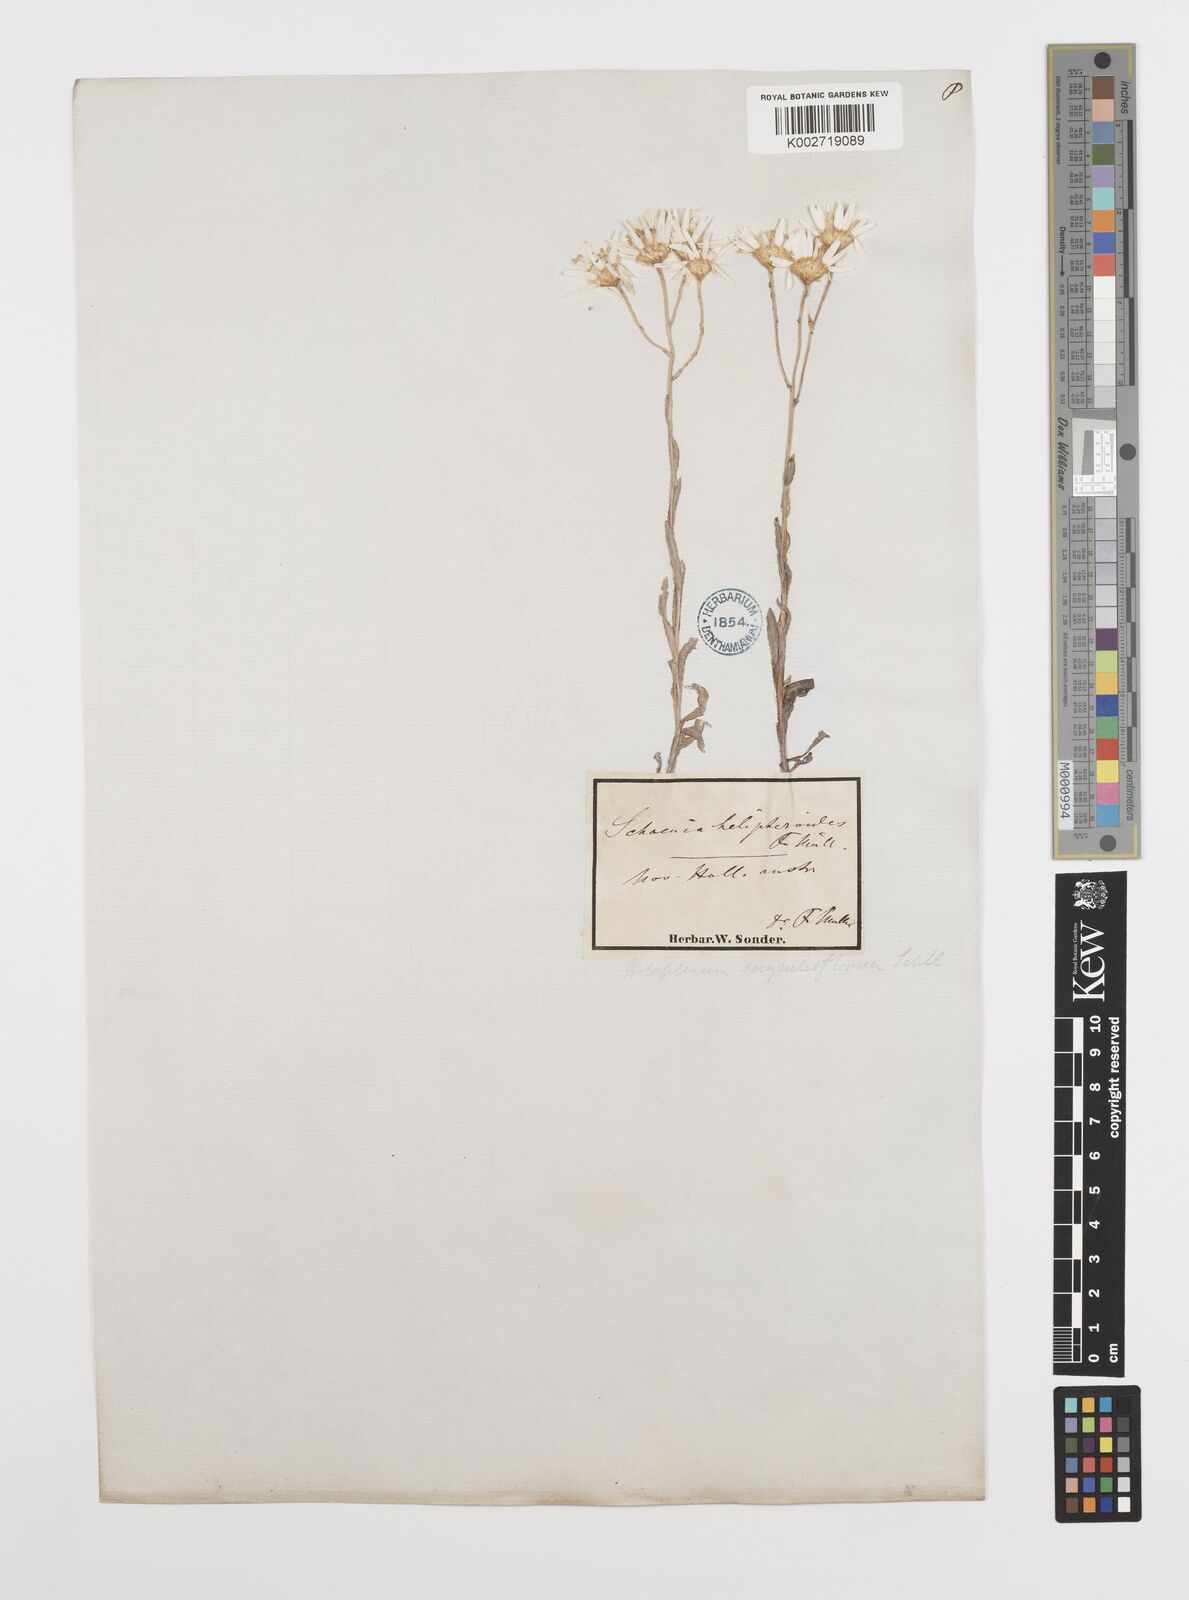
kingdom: Plantae
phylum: Tracheophyta
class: Magnoliopsida
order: Asterales
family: Asteraceae
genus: Rhodanthe
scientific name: Rhodanthe corymbiflora
